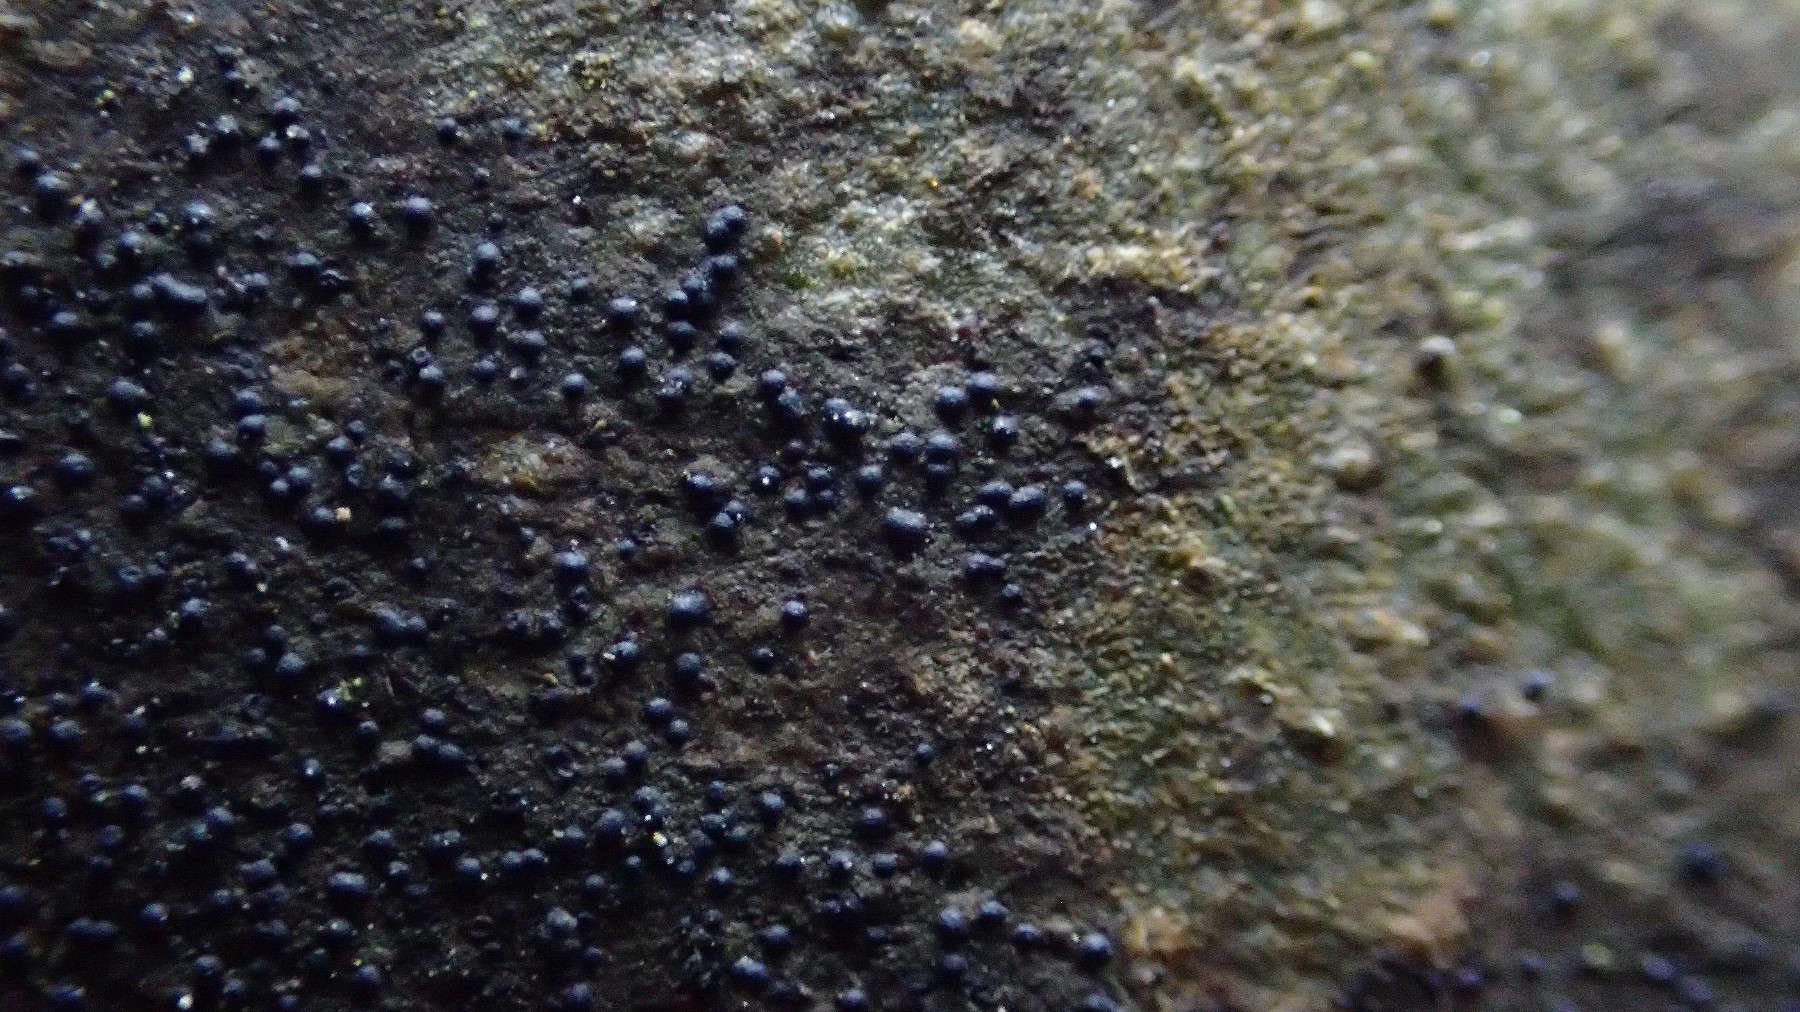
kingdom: Fungi
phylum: Ascomycota
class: Lecanoromycetes
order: Ostropales
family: Porinaceae
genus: Pseudosagedia
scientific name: Pseudosagedia aenea
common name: grønlig porina
